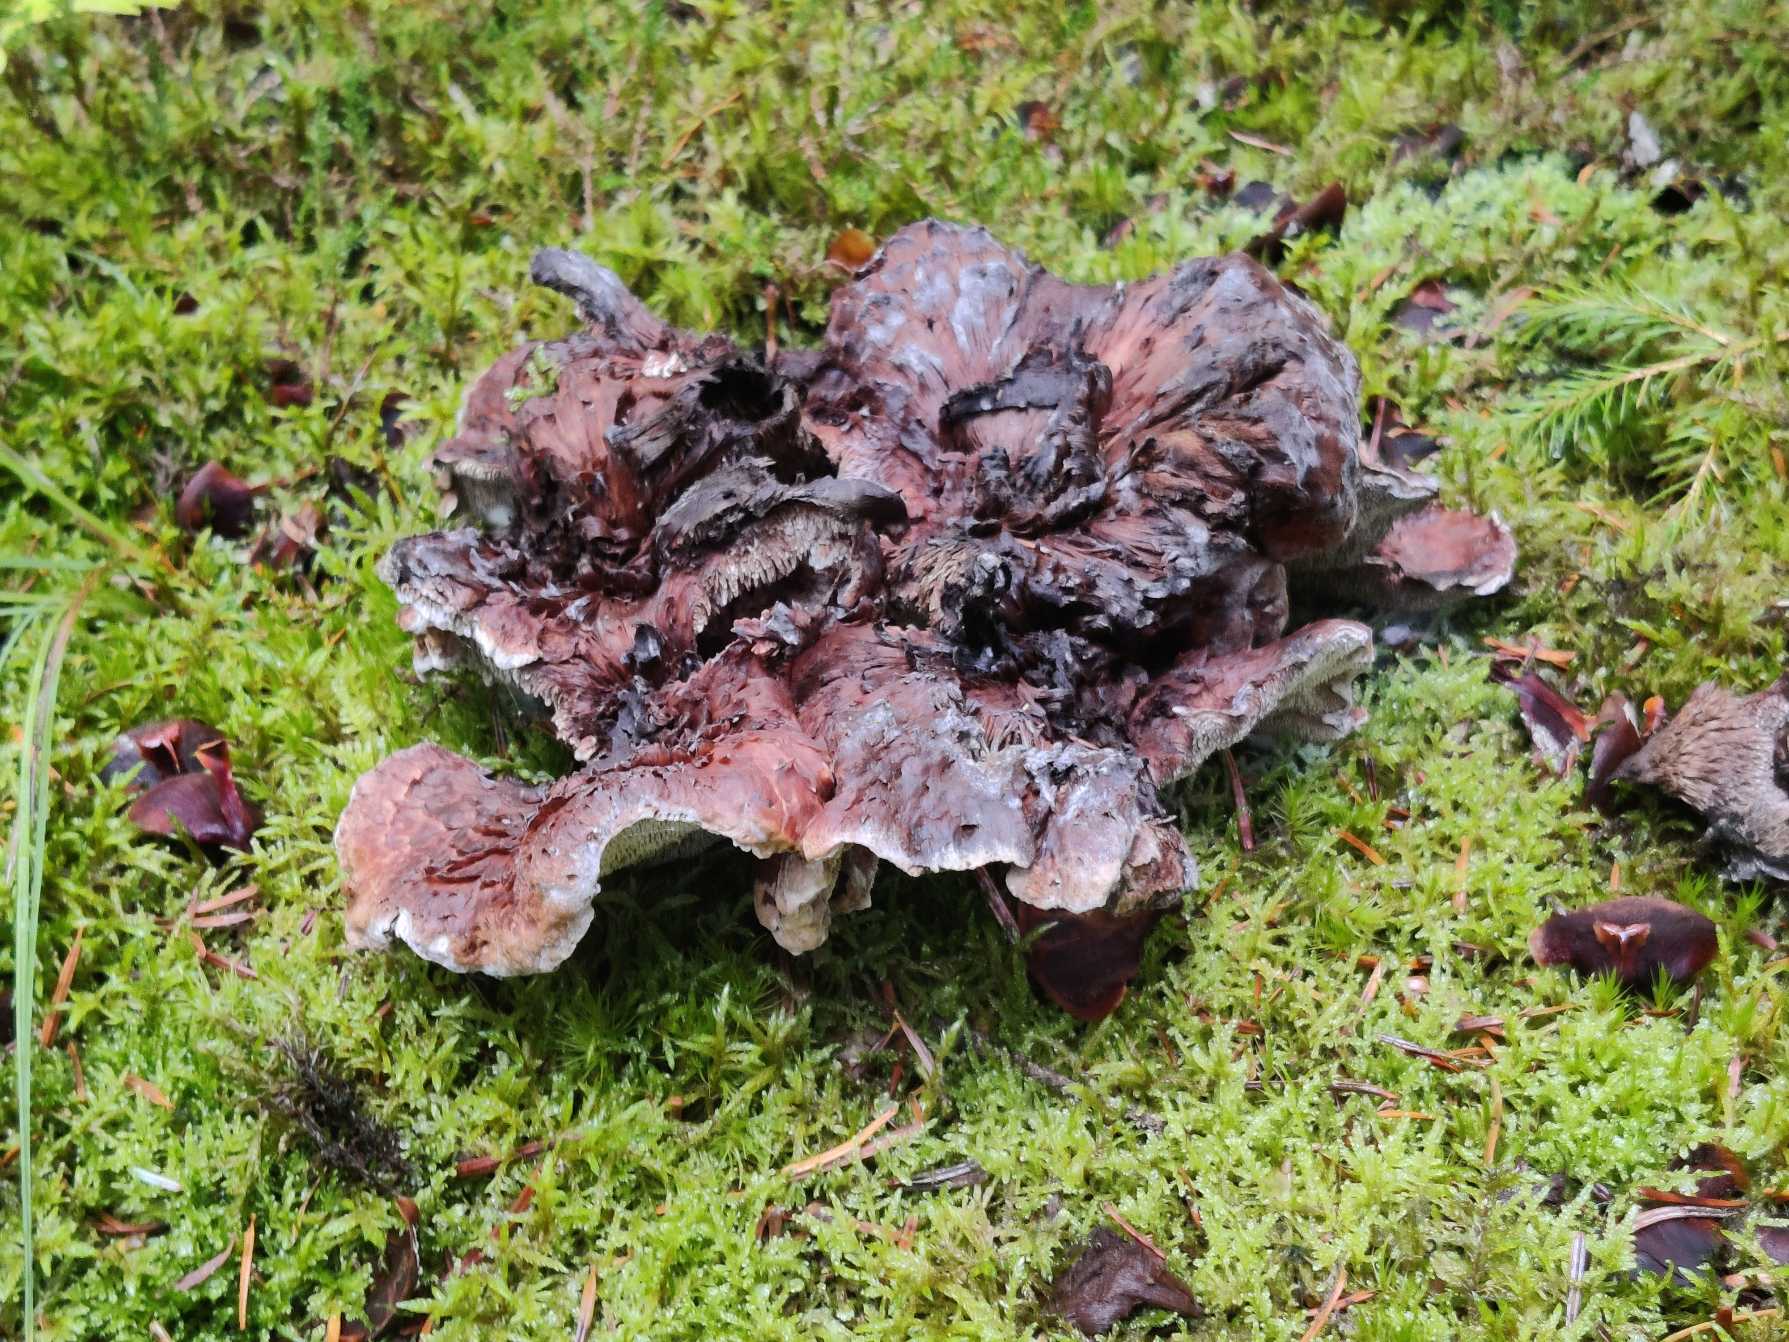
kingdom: Fungi
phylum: Basidiomycota
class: Agaricomycetes
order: Thelephorales
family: Thelephoraceae
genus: Phellodon
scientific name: Phellodon violascens
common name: Violetbrun duftpigsvamp
